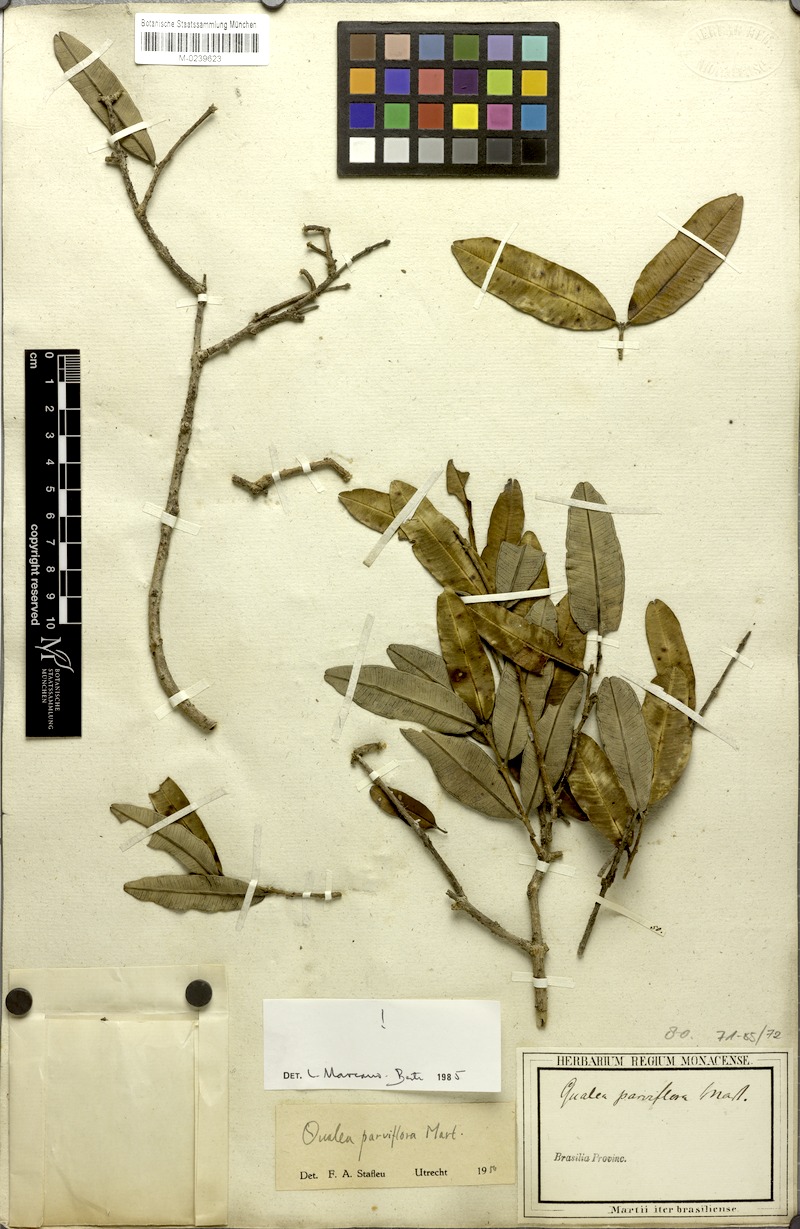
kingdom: Plantae
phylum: Tracheophyta
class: Magnoliopsida
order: Myrtales
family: Vochysiaceae
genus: Qualea
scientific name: Qualea parviflora
